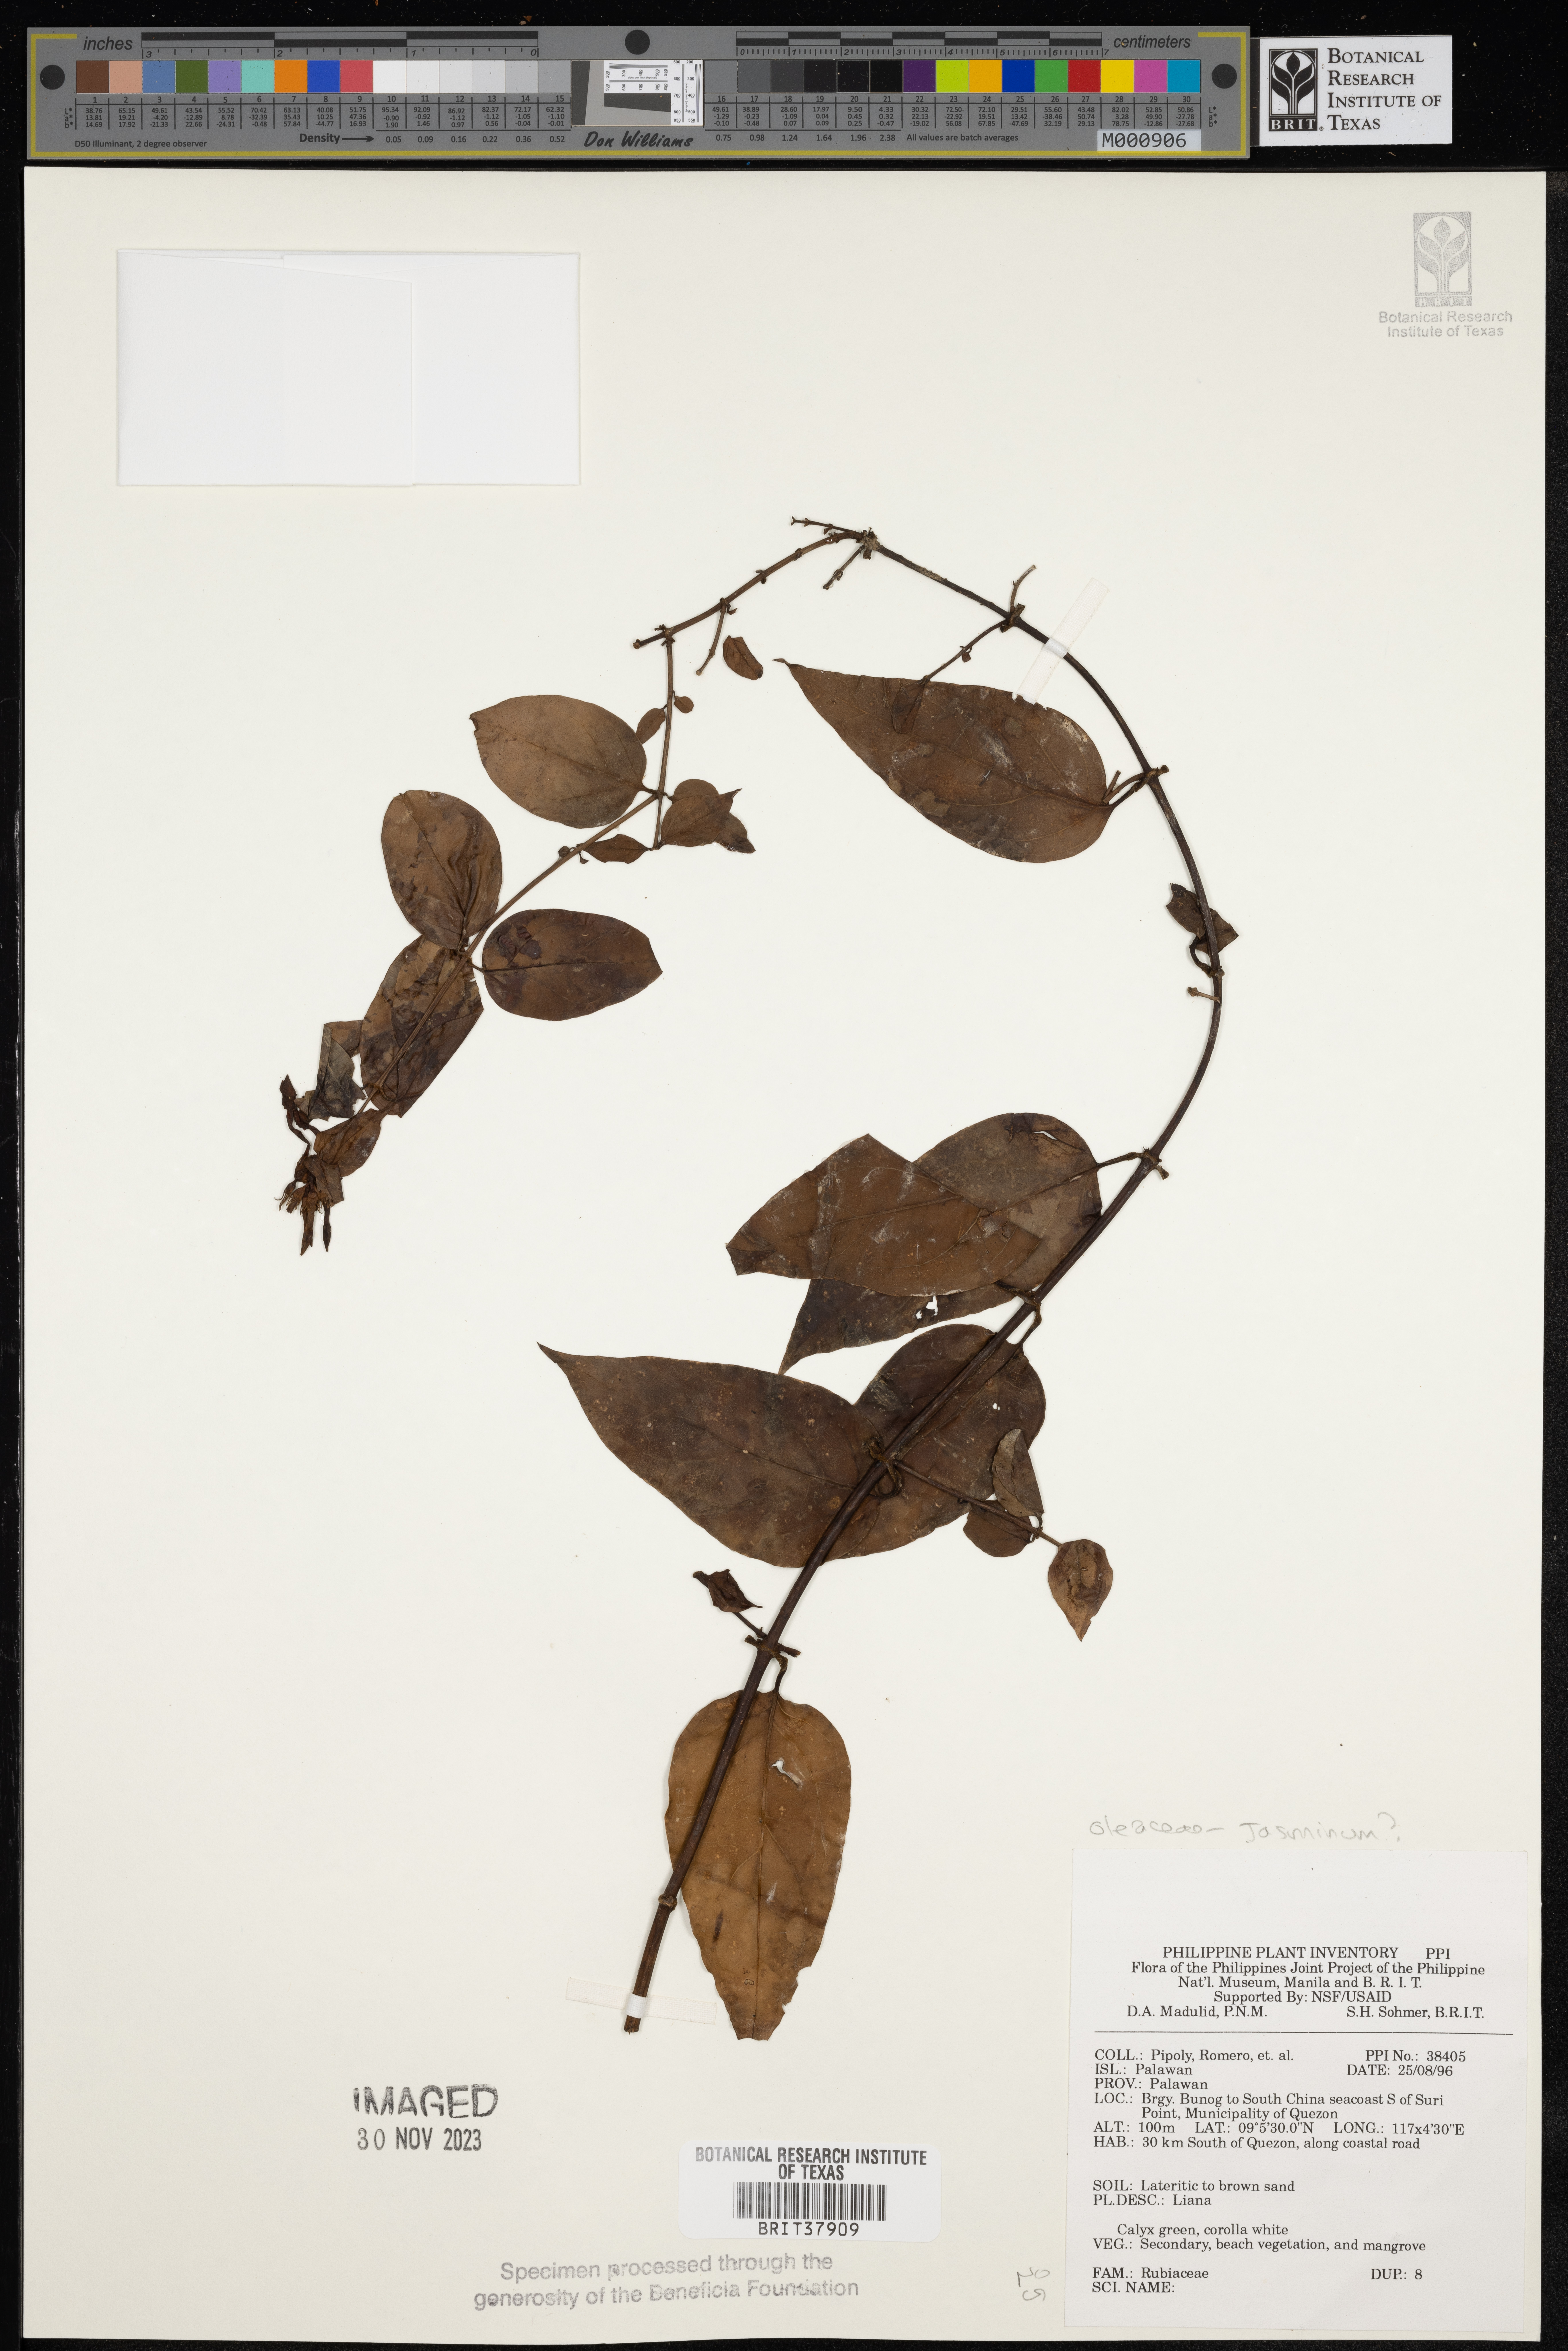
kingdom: Plantae
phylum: Tracheophyta
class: Magnoliopsida
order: Lamiales
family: Oleaceae
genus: Jasminum
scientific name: Jasminum
